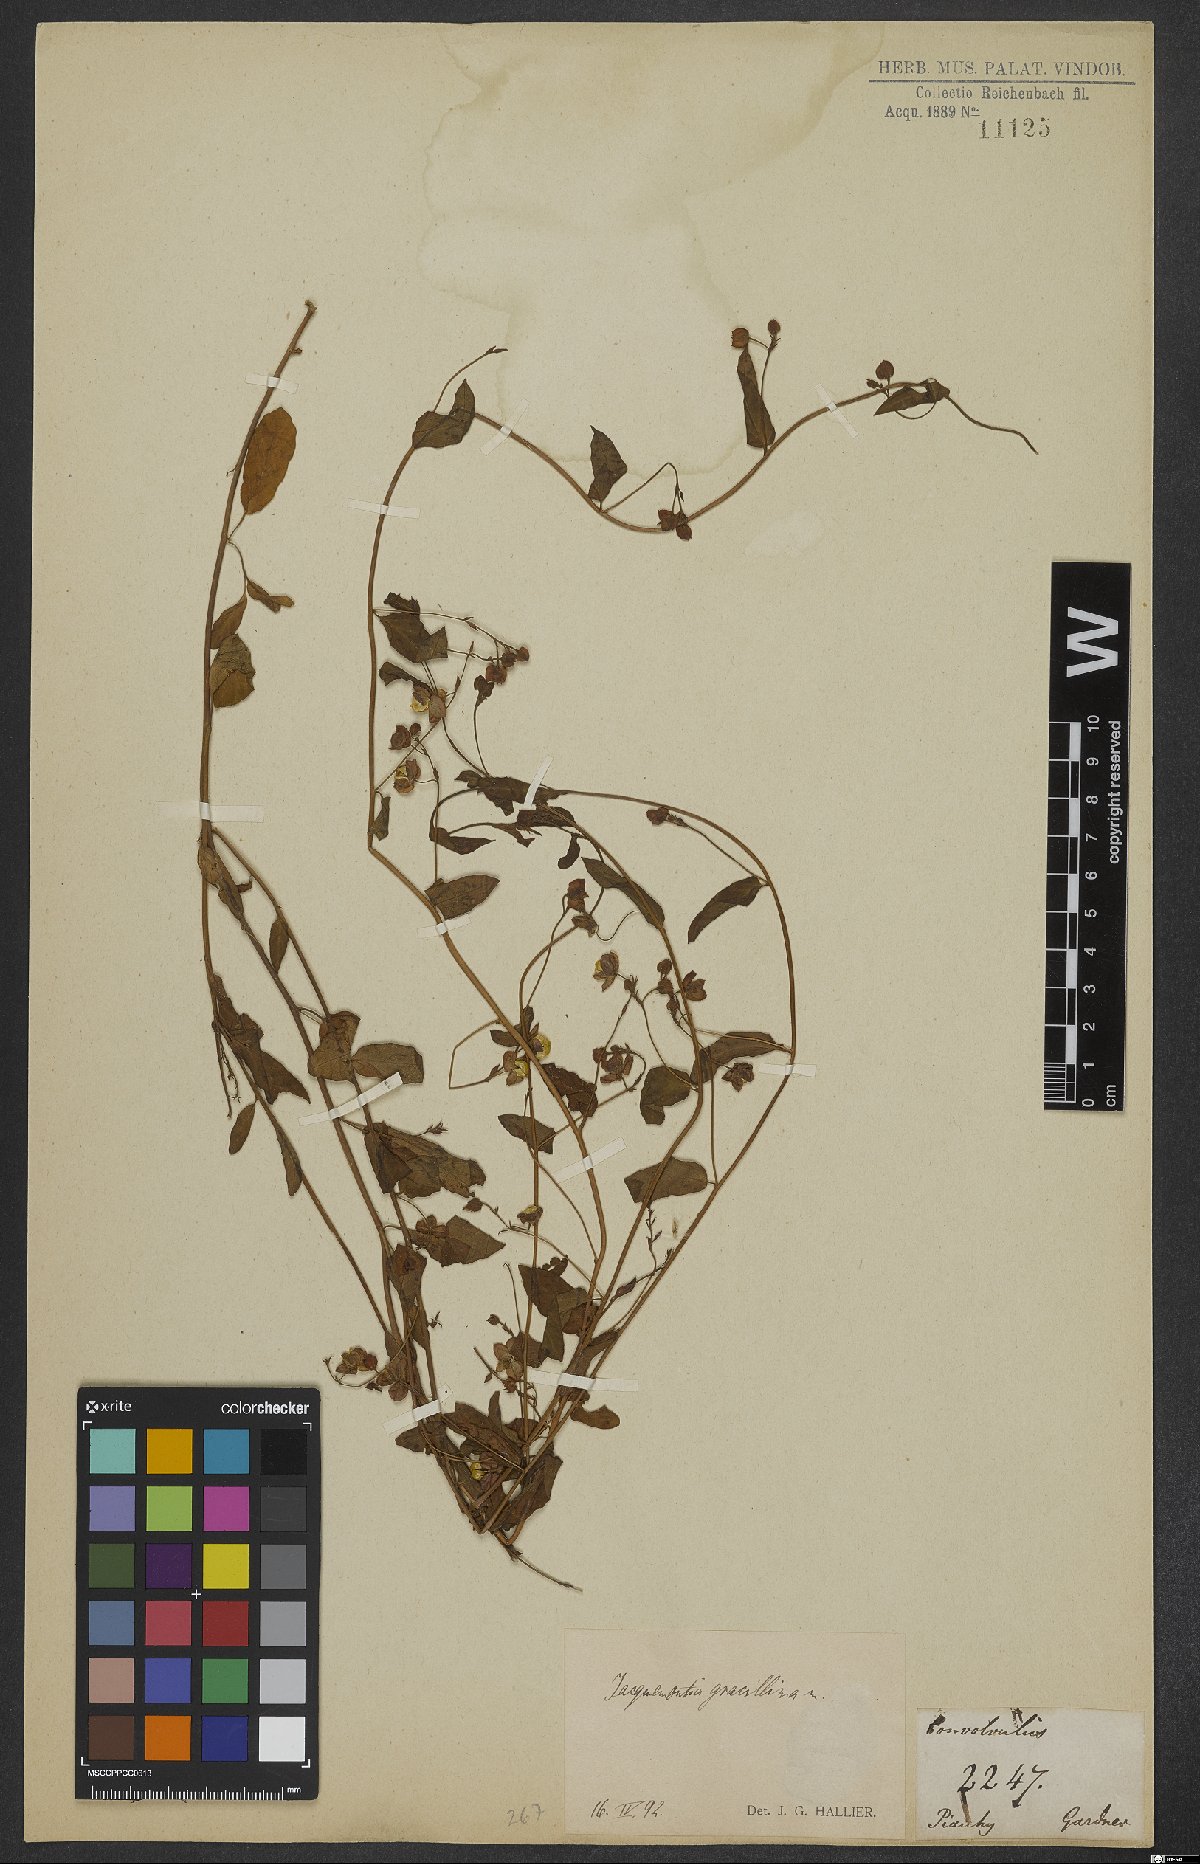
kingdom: Plantae
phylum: Tracheophyta
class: Magnoliopsida
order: Solanales
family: Convolvulaceae
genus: Jacquemontia
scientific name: Jacquemontia gracillima
